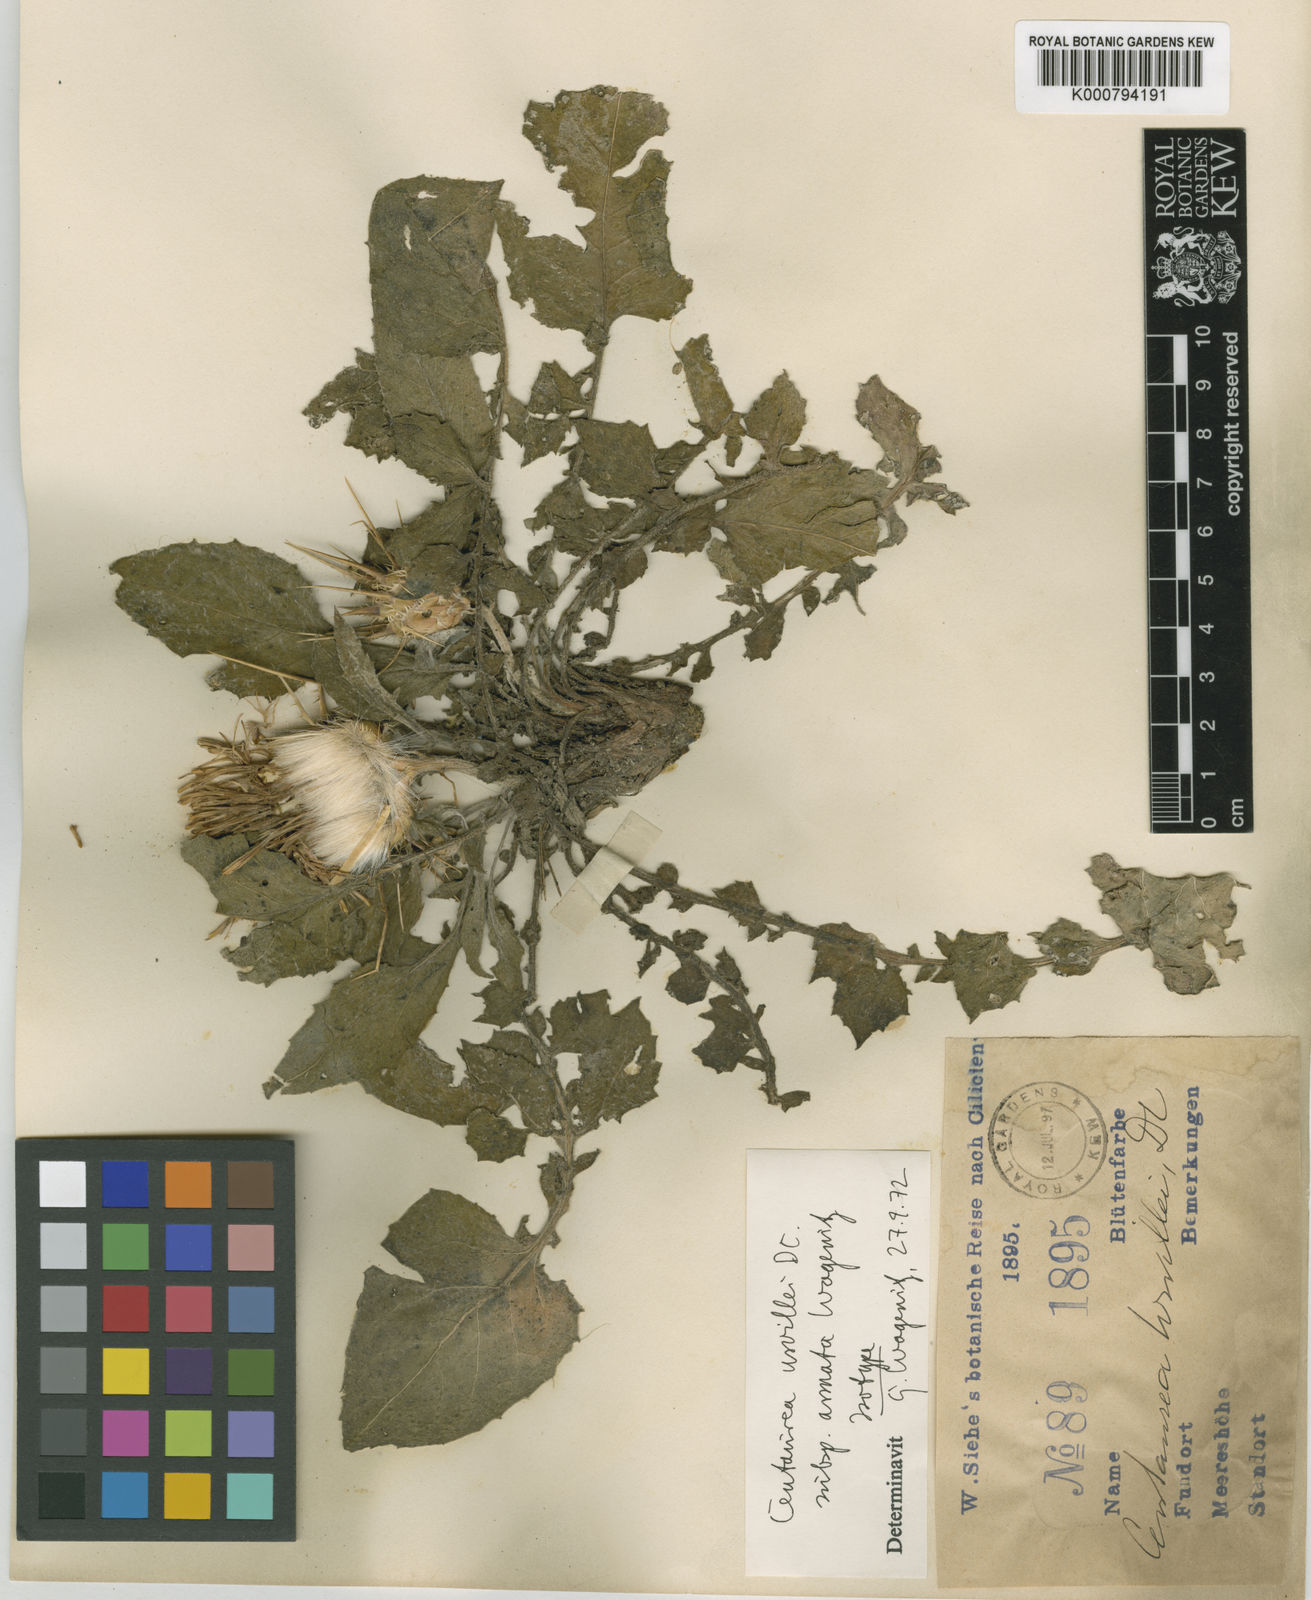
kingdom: Plantae
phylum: Tracheophyta
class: Magnoliopsida
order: Asterales
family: Asteraceae
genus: Centaurea
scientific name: Centaurea urvillei
